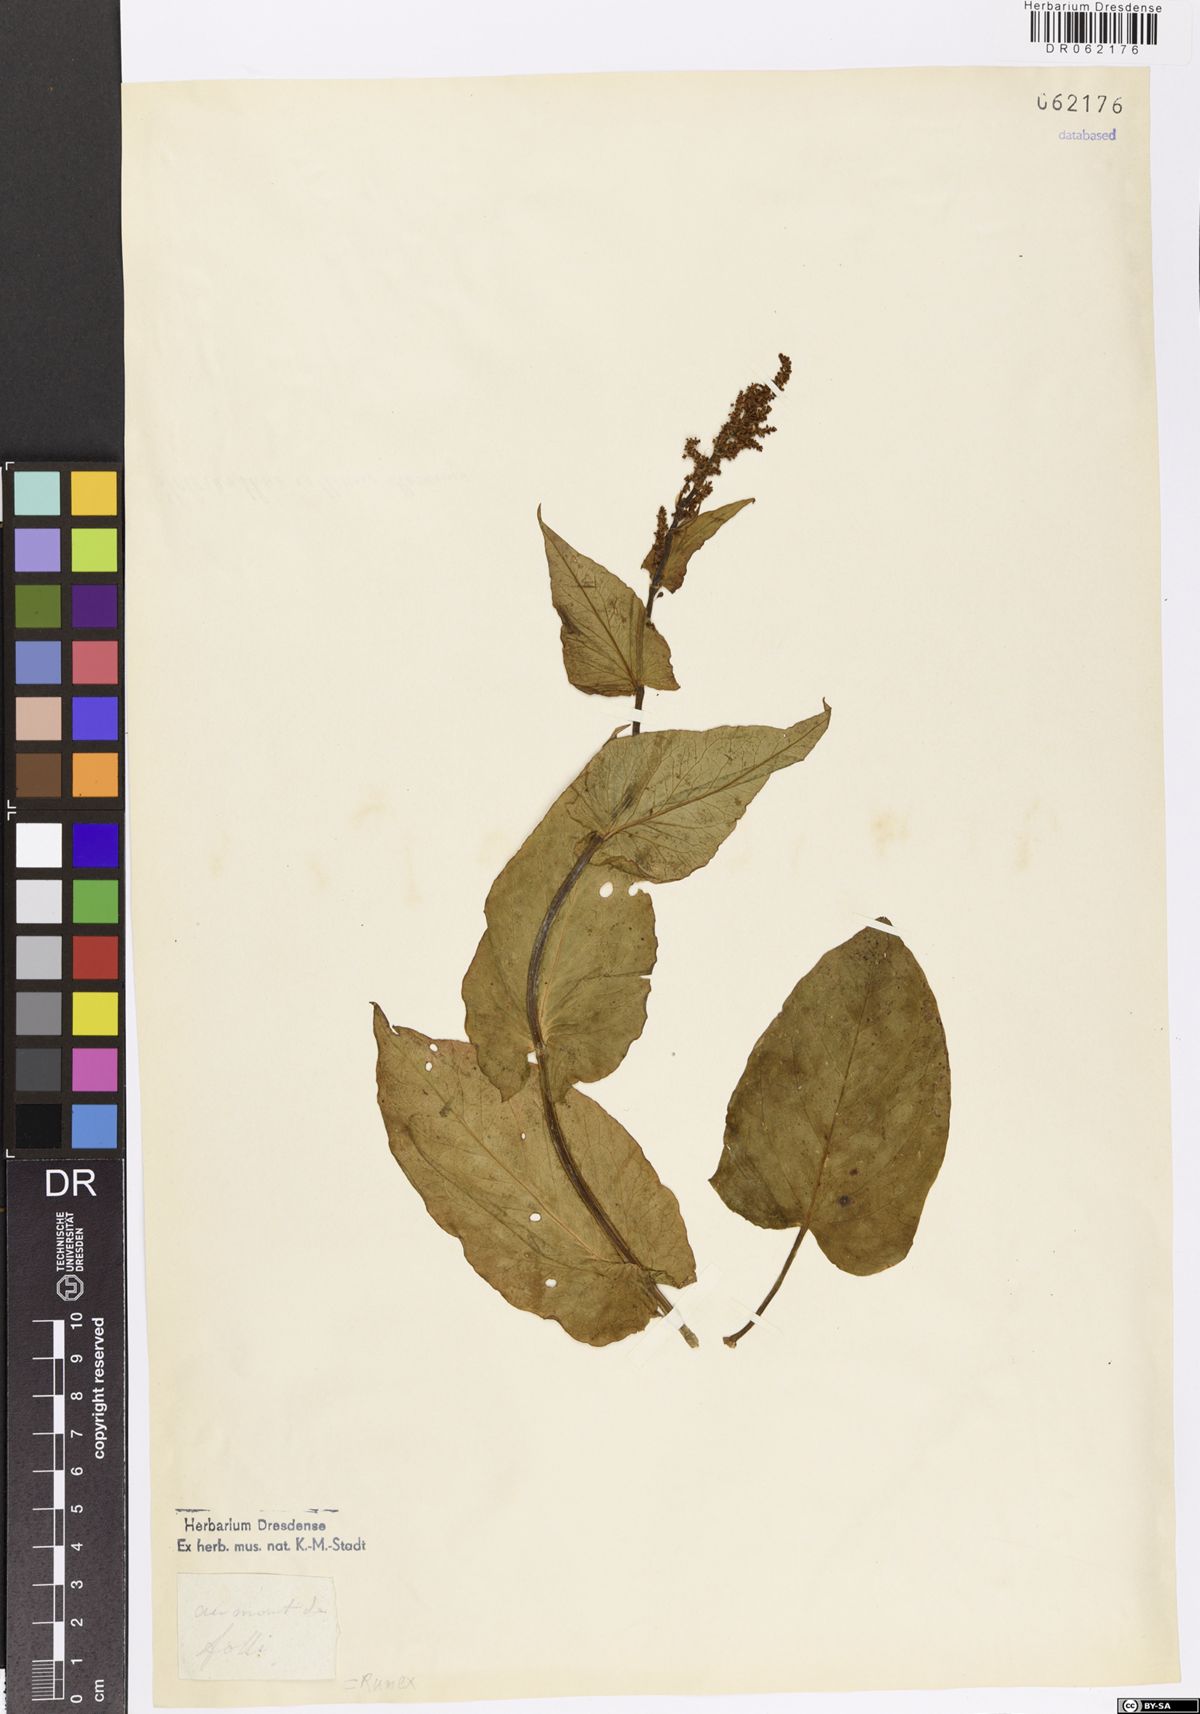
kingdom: Plantae
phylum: Tracheophyta
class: Magnoliopsida
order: Caryophyllales
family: Polygonaceae
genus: Rumex
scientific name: Rumex
